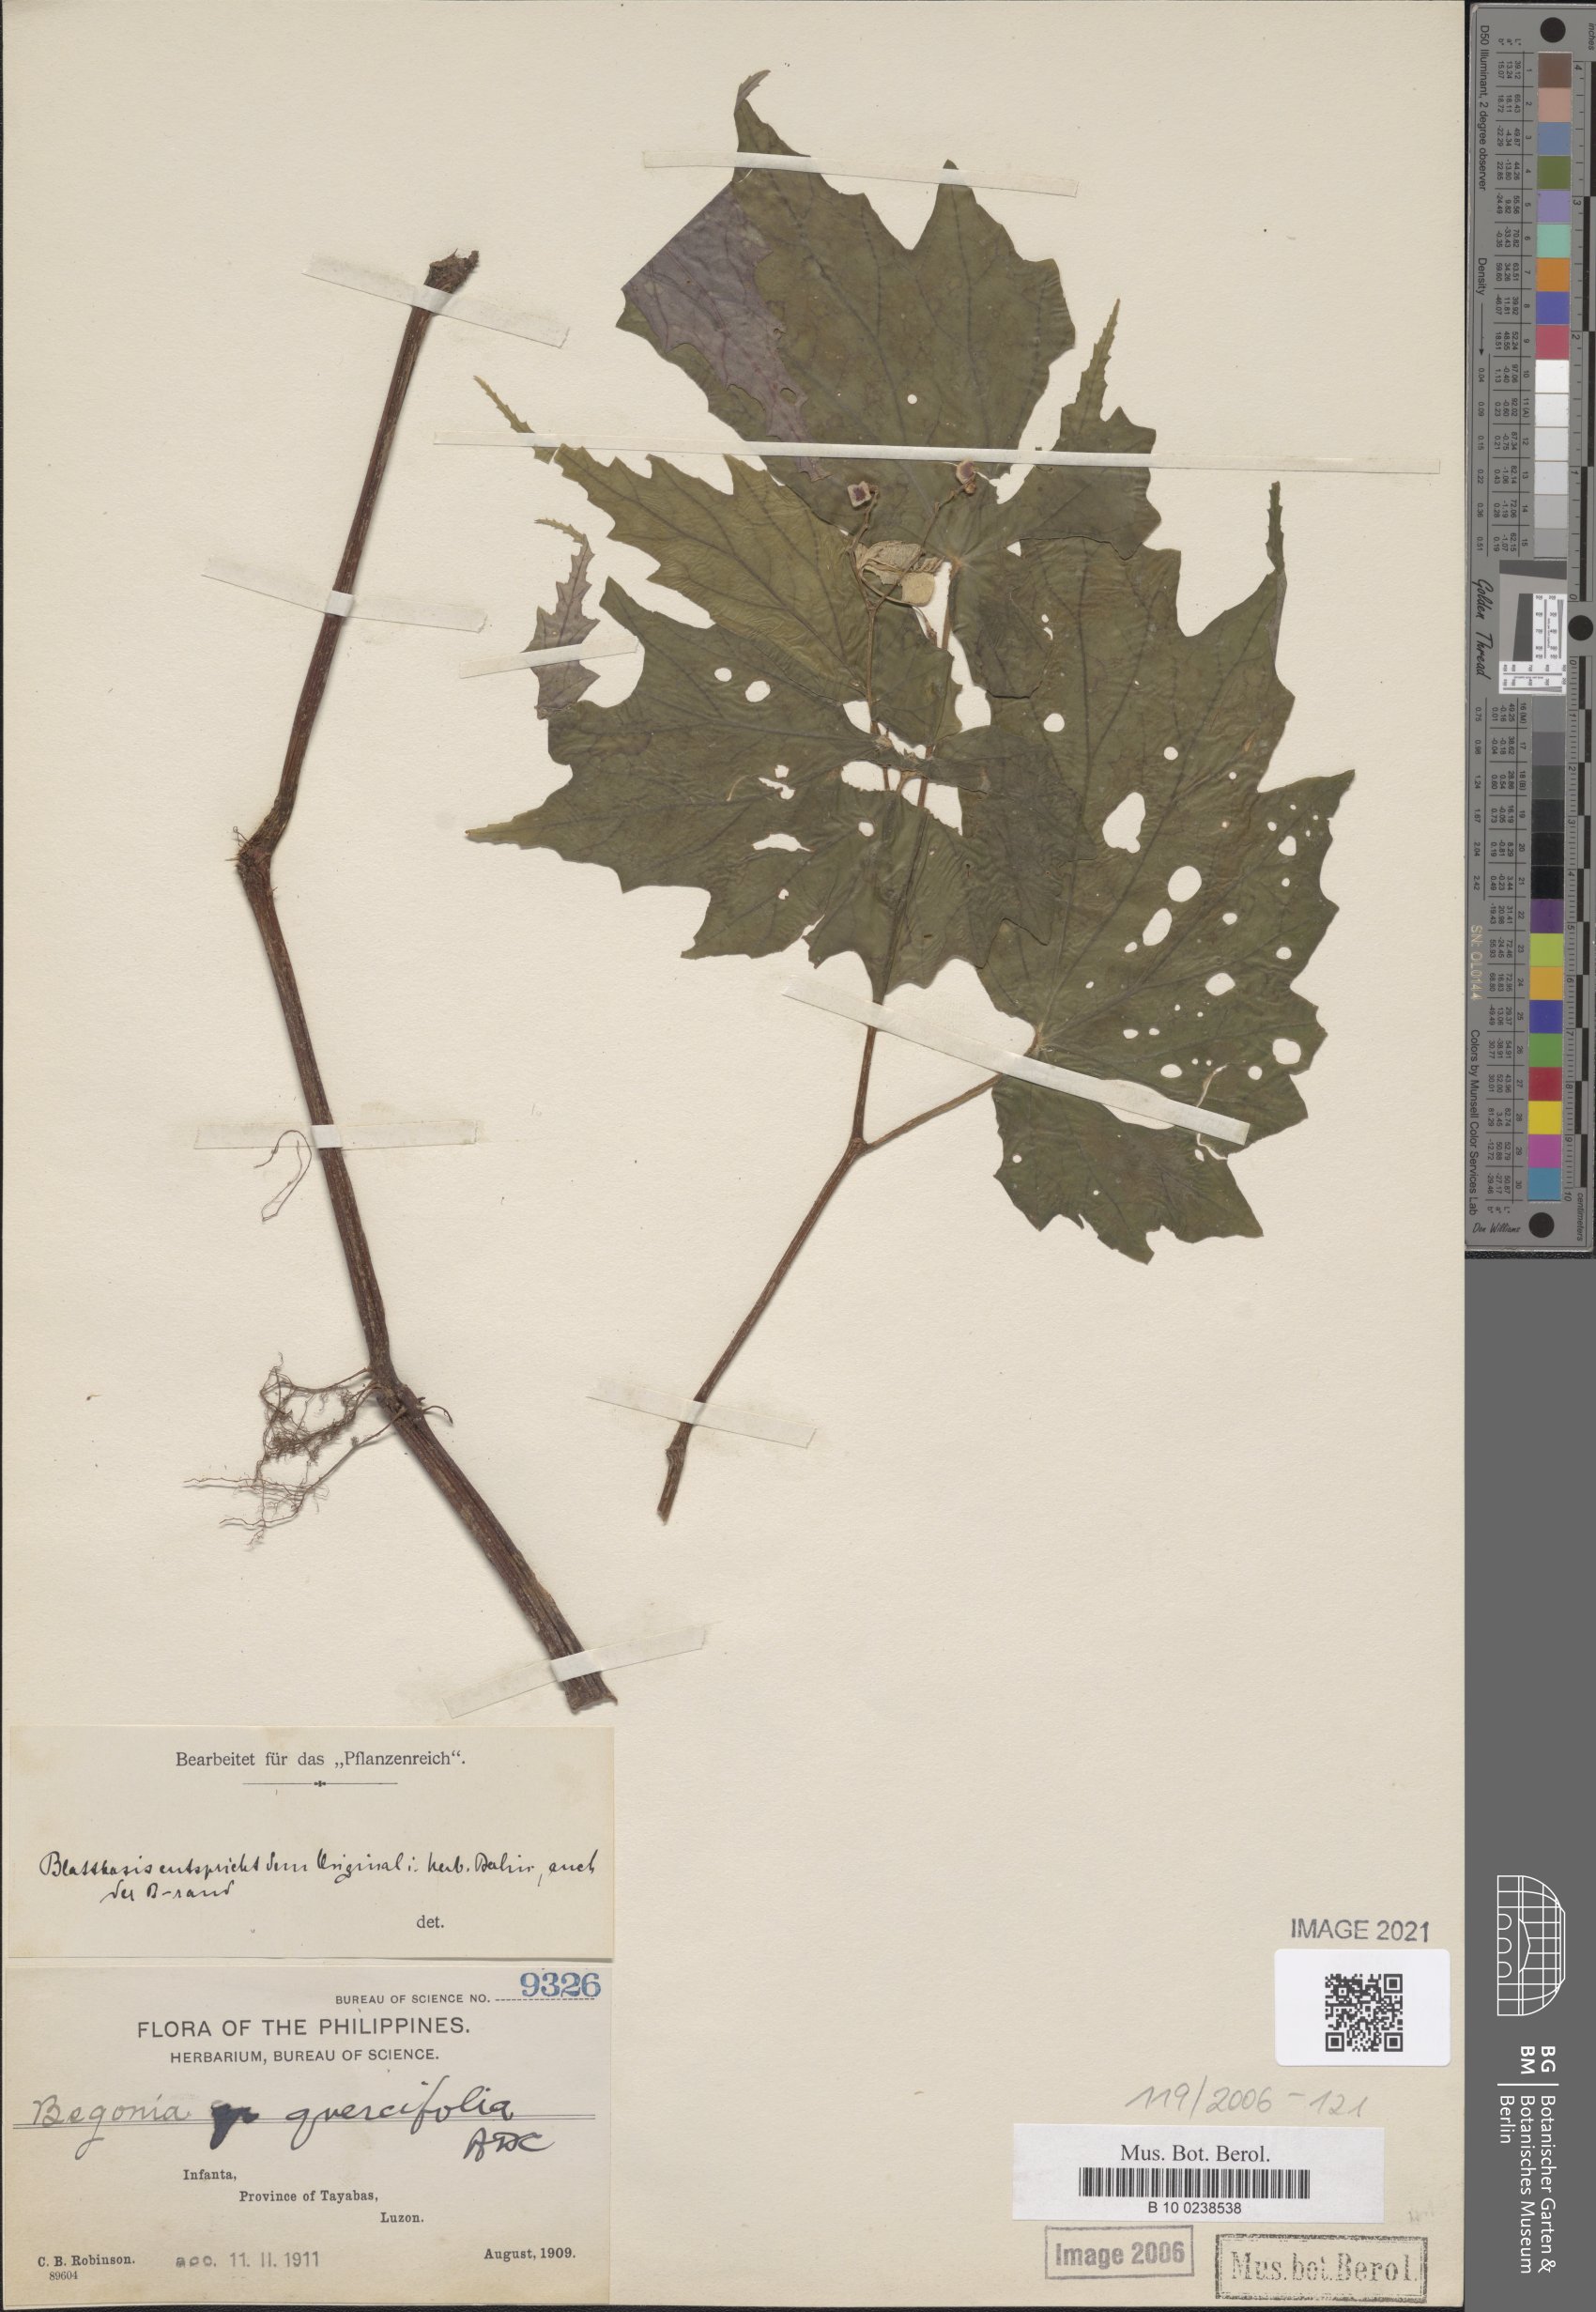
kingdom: Plantae
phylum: Tracheophyta
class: Magnoliopsida
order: Cucurbitales
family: Begoniaceae
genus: Begonia
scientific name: Begonia quercifolia
